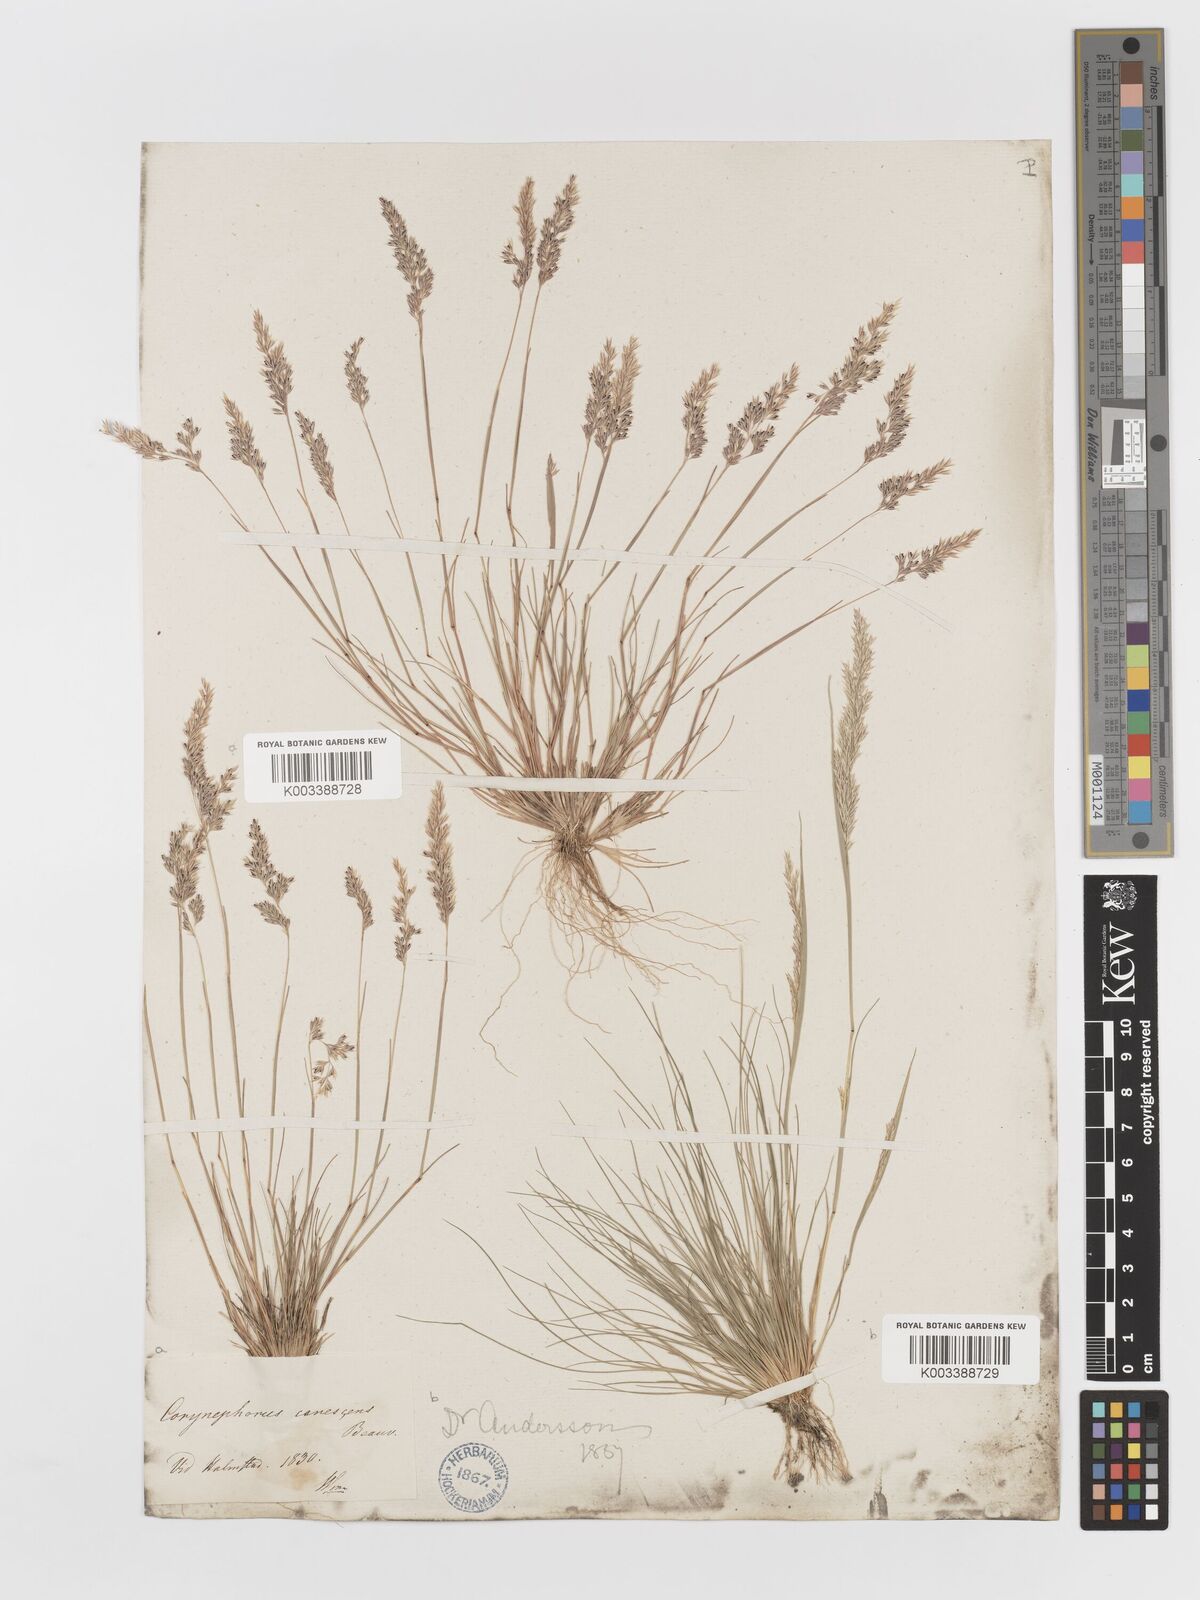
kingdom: Plantae
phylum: Tracheophyta
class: Liliopsida
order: Poales
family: Poaceae
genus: Corynephorus
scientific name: Corynephorus canescens
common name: Grey hair-grass
